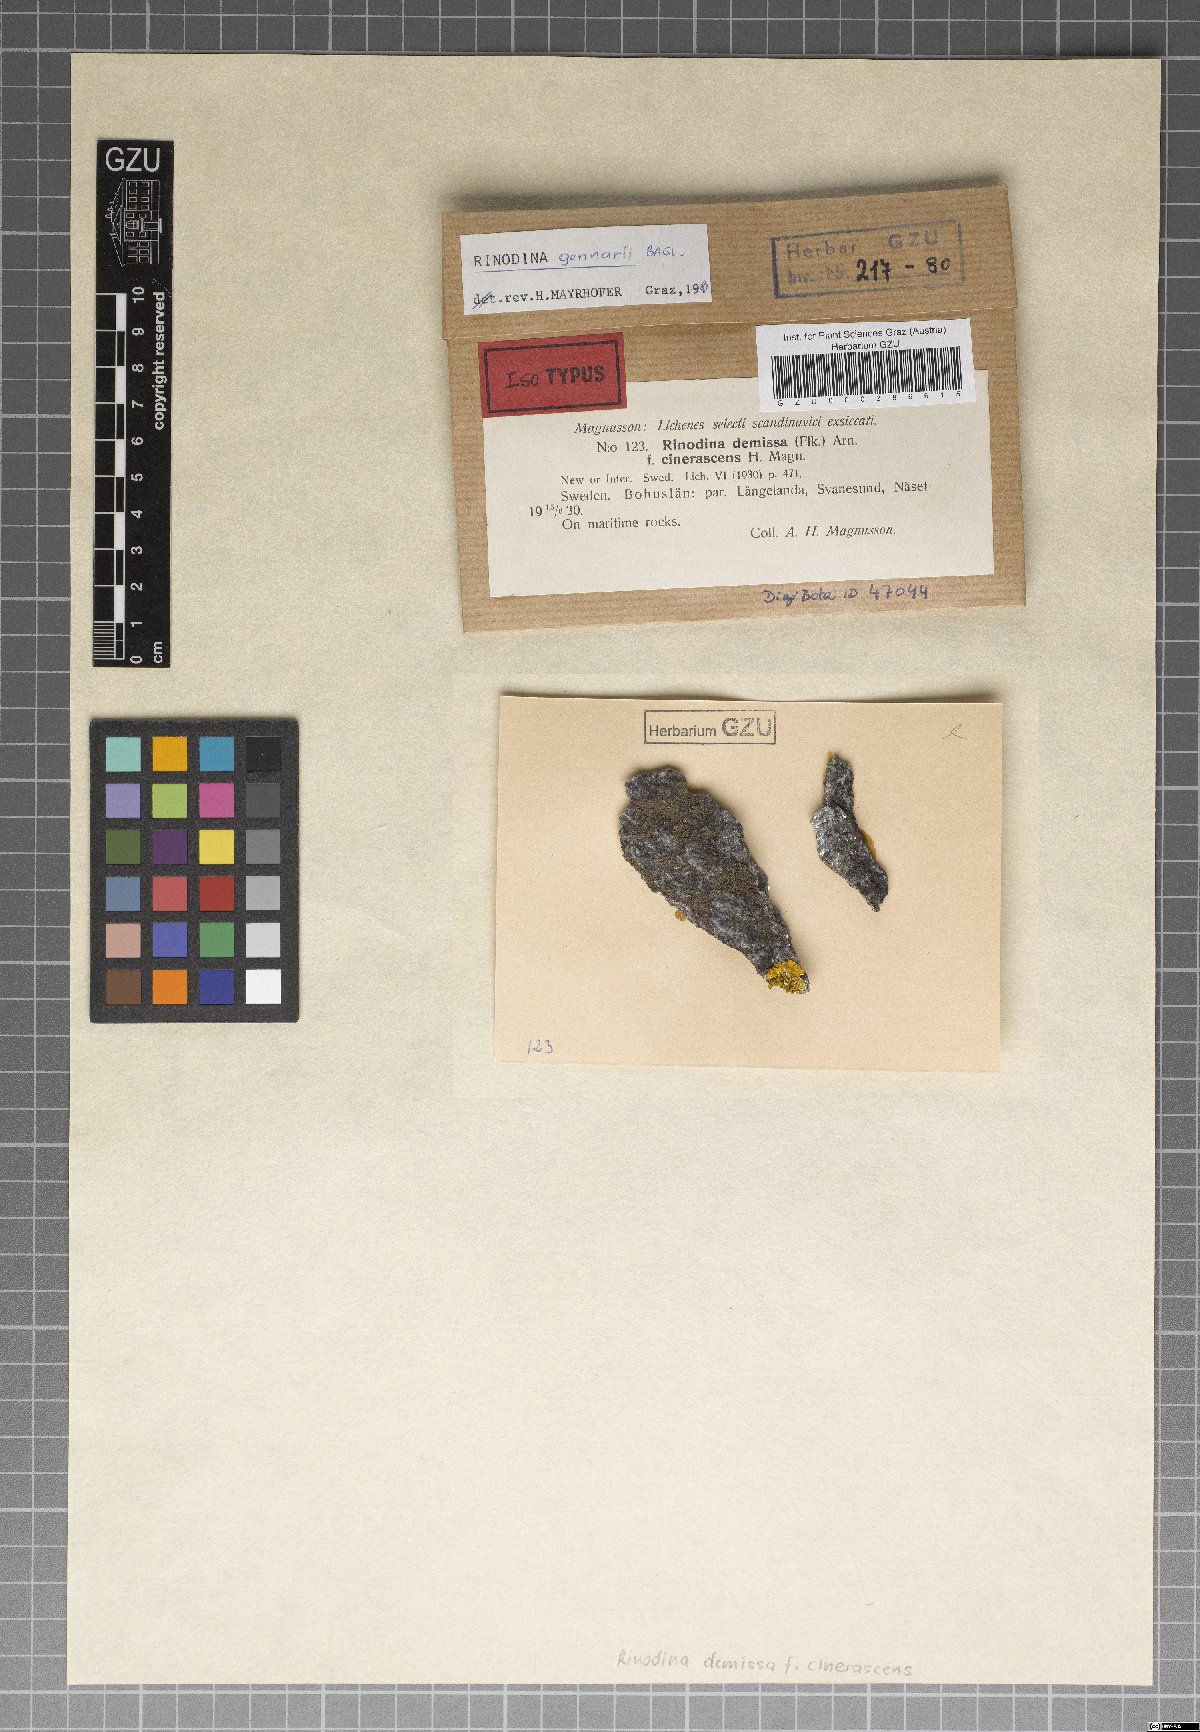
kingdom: Fungi
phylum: Ascomycota
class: Lecanoromycetes
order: Caliciales
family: Physciaceae
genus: Rinodina
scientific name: Rinodina gennarii
